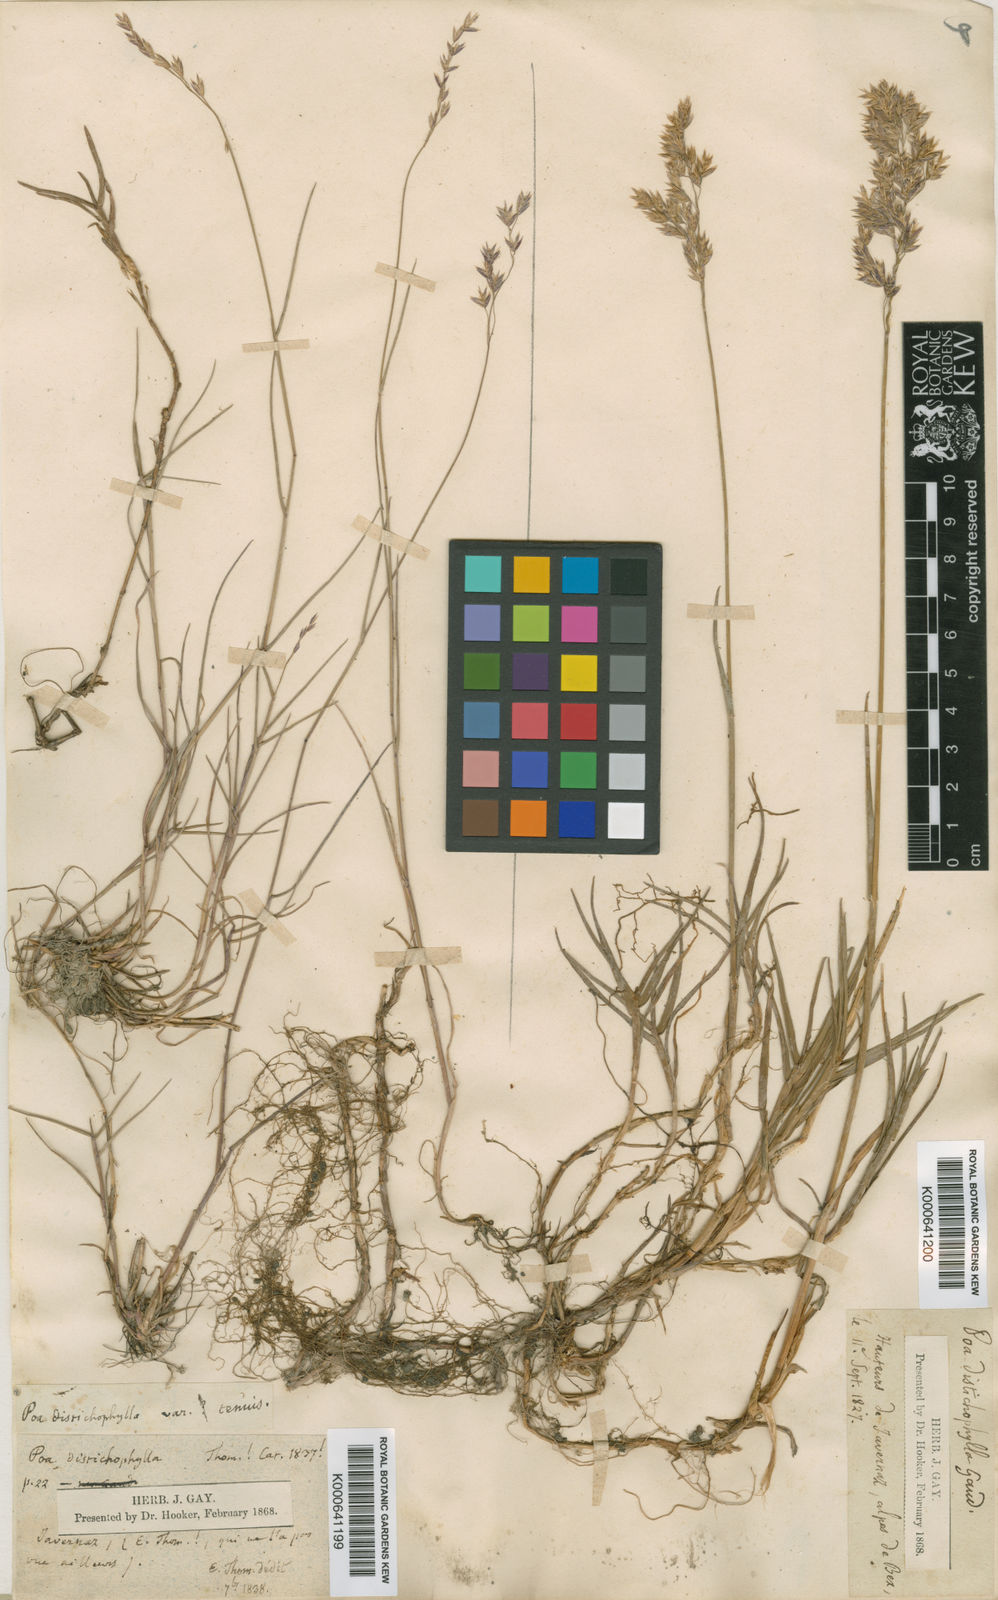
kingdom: Plantae
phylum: Tracheophyta
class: Liliopsida
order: Poales
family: Poaceae
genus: Poa
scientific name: Poa cenisia
